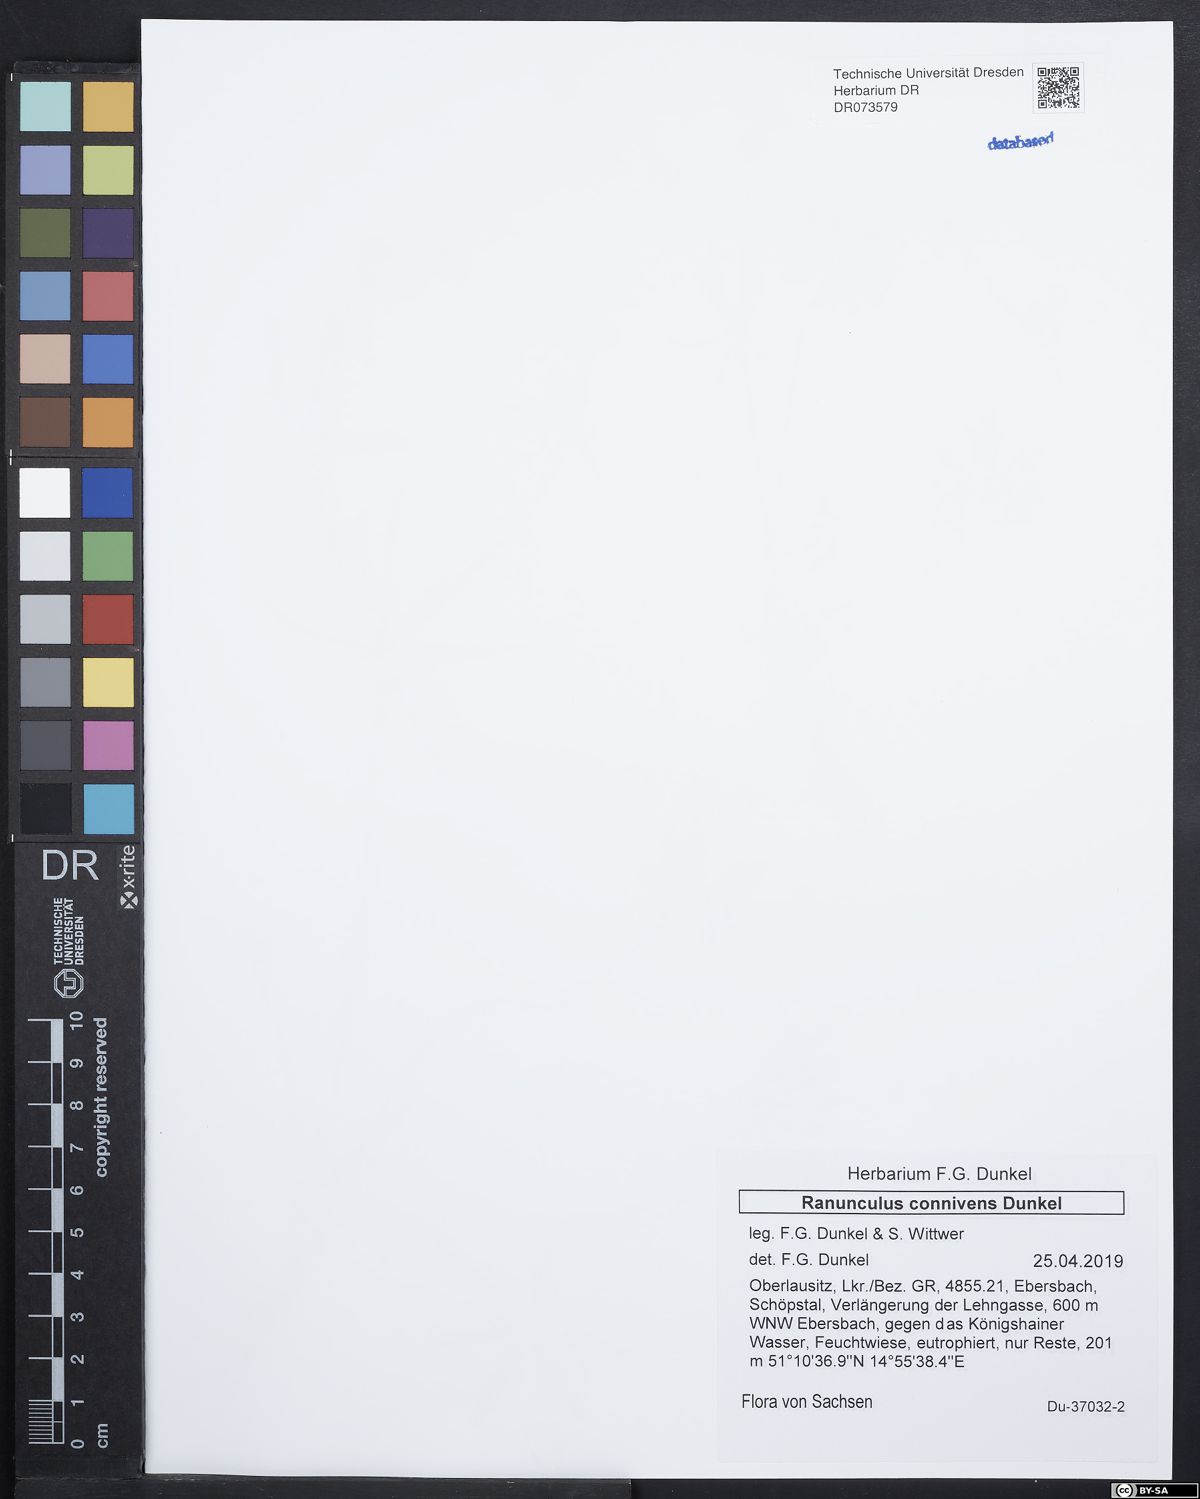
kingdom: Plantae
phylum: Tracheophyta
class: Magnoliopsida
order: Ranunculales
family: Ranunculaceae
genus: Ranunculus
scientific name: Ranunculus connivens
